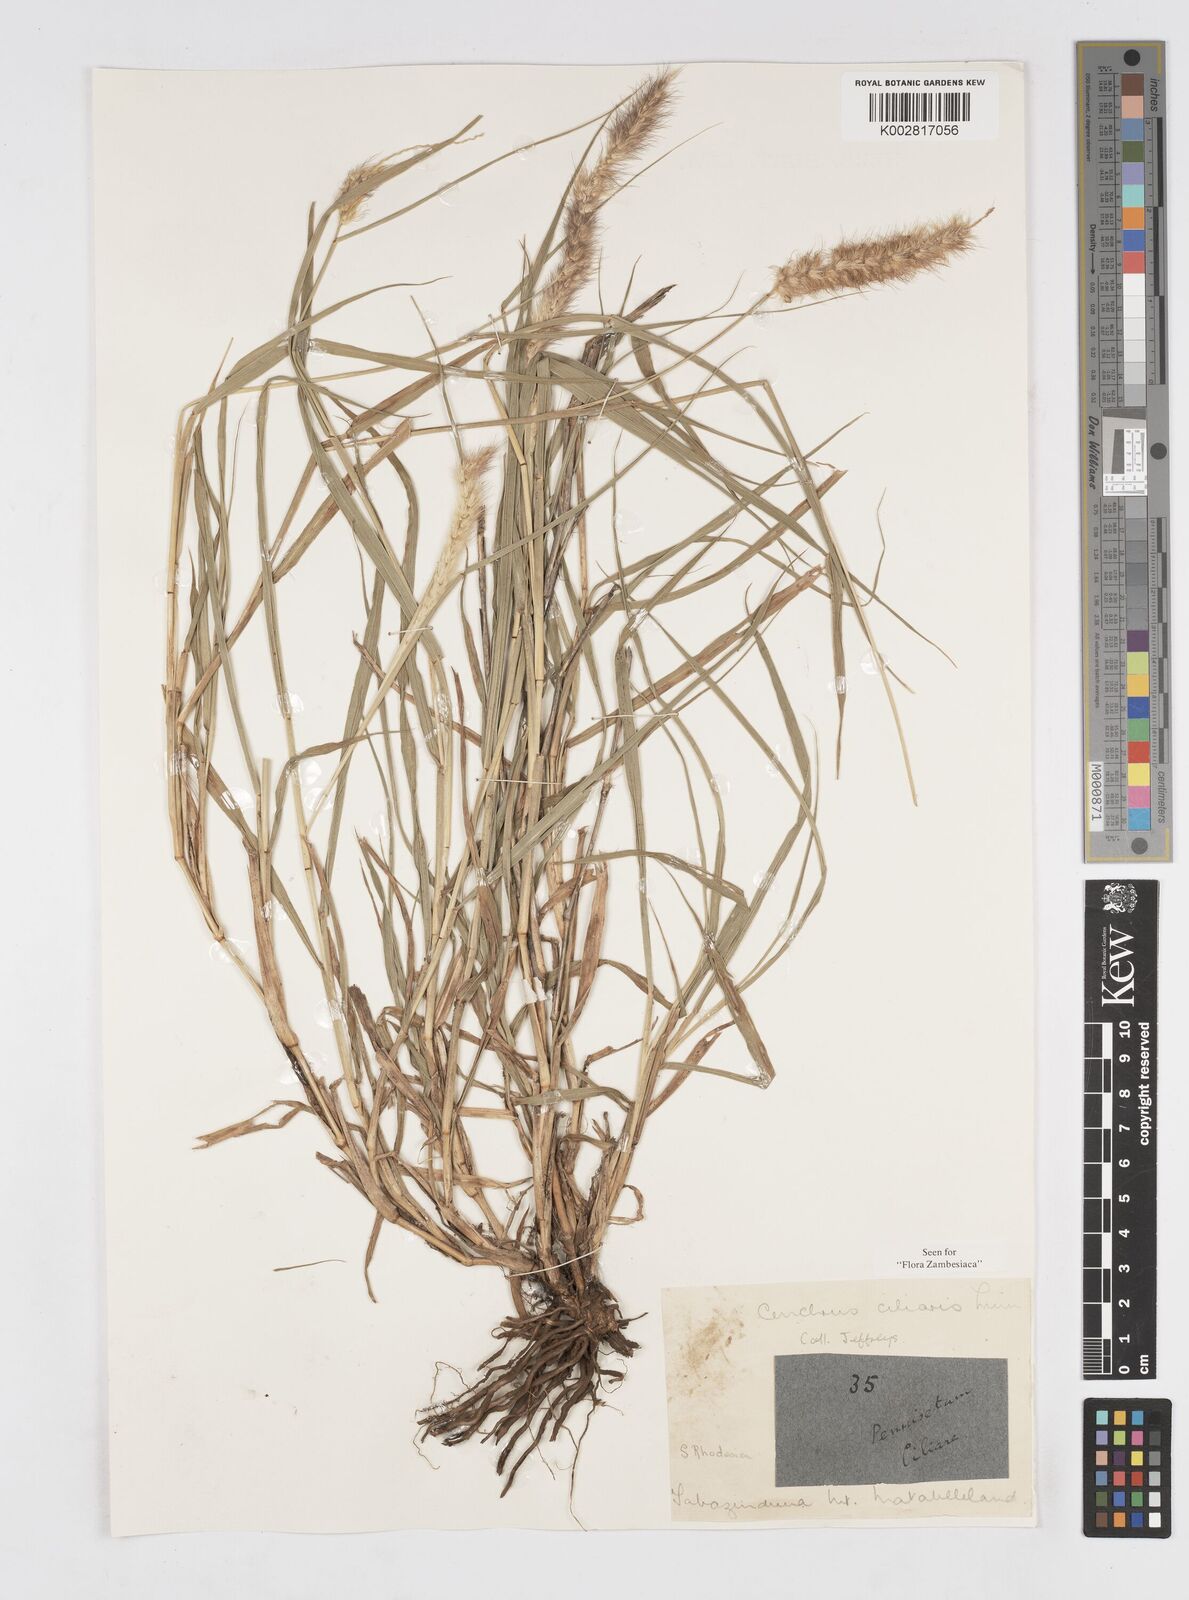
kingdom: Plantae
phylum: Tracheophyta
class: Liliopsida
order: Poales
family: Poaceae
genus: Cenchrus
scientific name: Cenchrus ciliaris
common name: Buffelgrass
